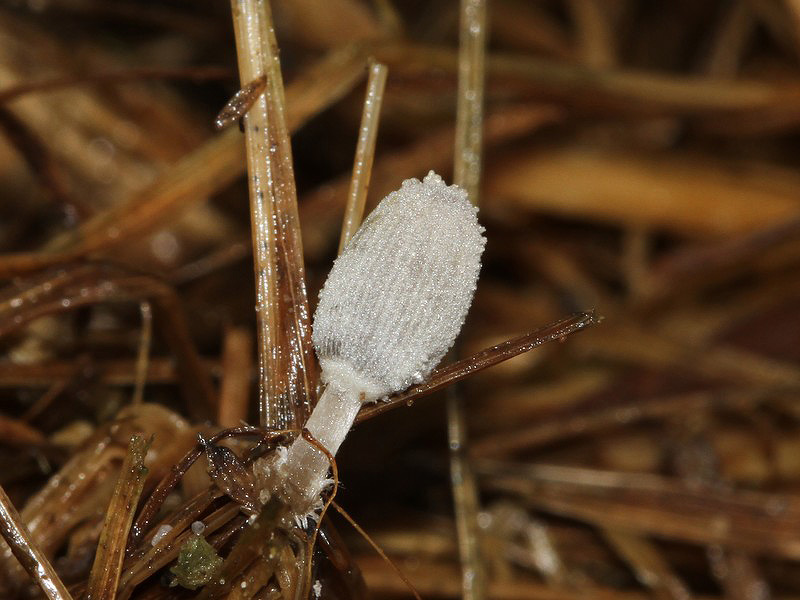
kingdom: Fungi
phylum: Basidiomycota
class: Agaricomycetes
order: Agaricales
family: Psathyrellaceae
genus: Narcissea
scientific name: Narcissea ephemeroides
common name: ring-blækhat
